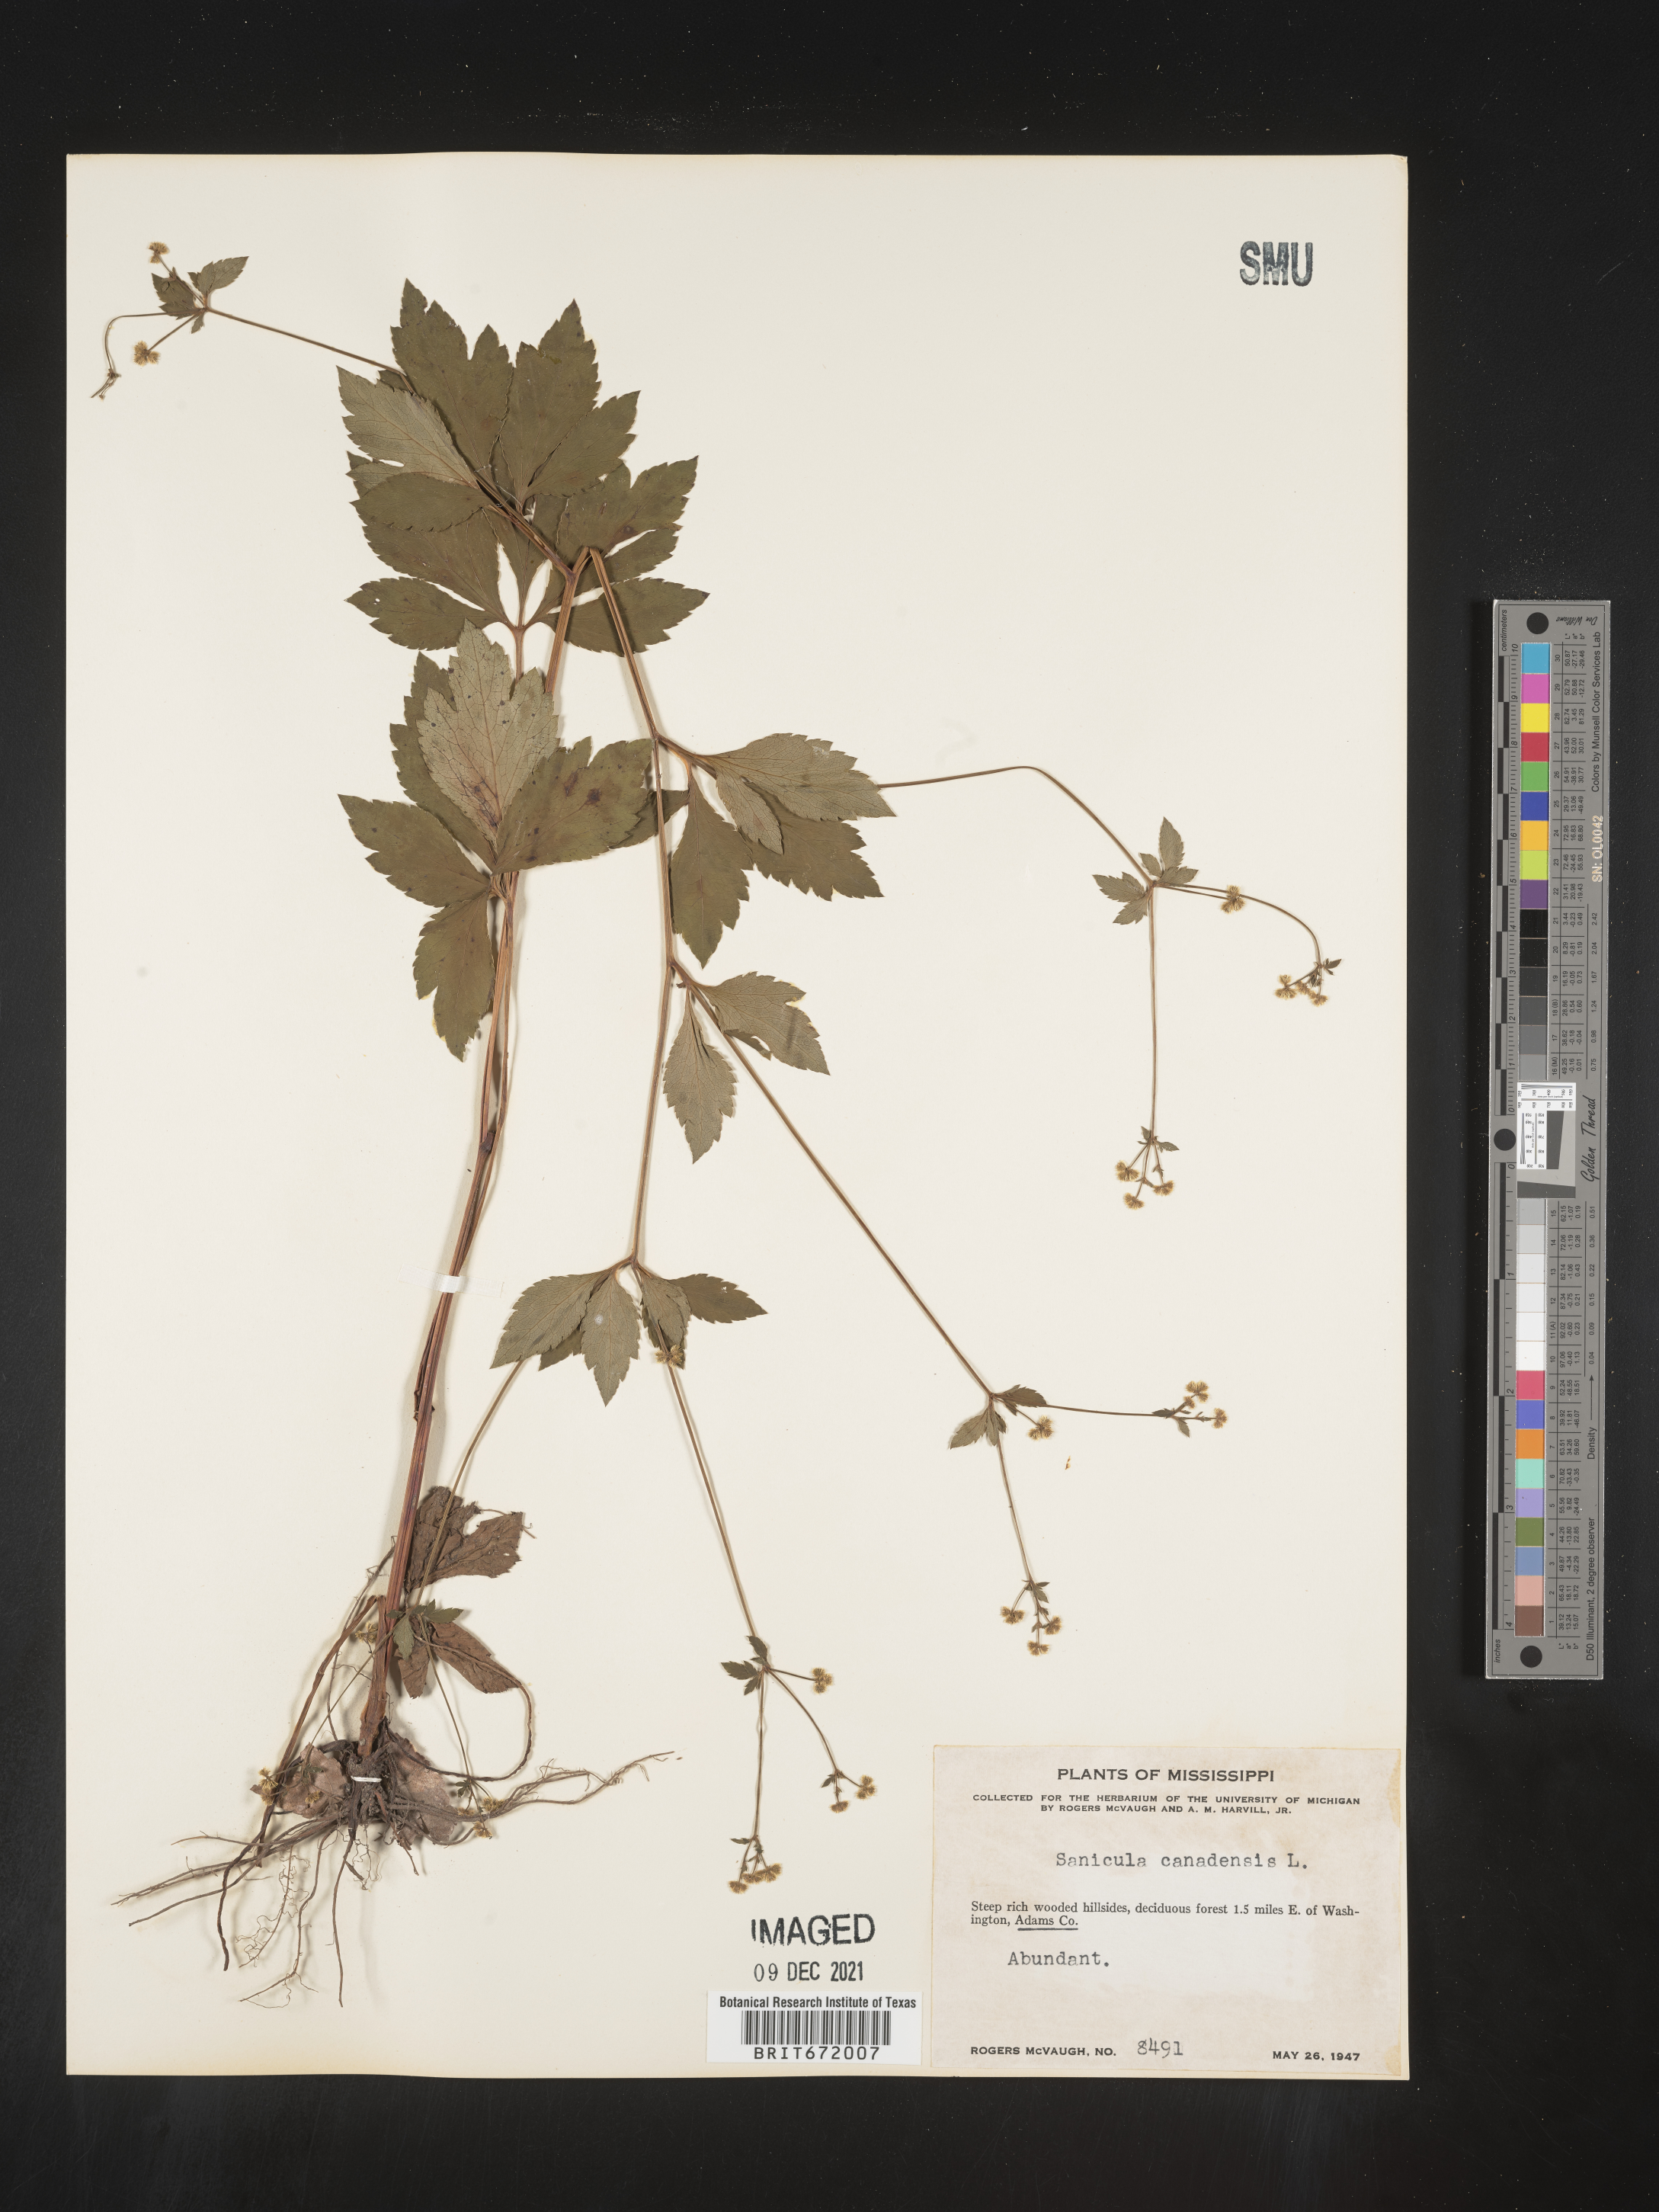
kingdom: Plantae
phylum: Tracheophyta
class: Magnoliopsida
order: Apiales
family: Apiaceae
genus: Sanicula
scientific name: Sanicula canadensis
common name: Canada sanicle
